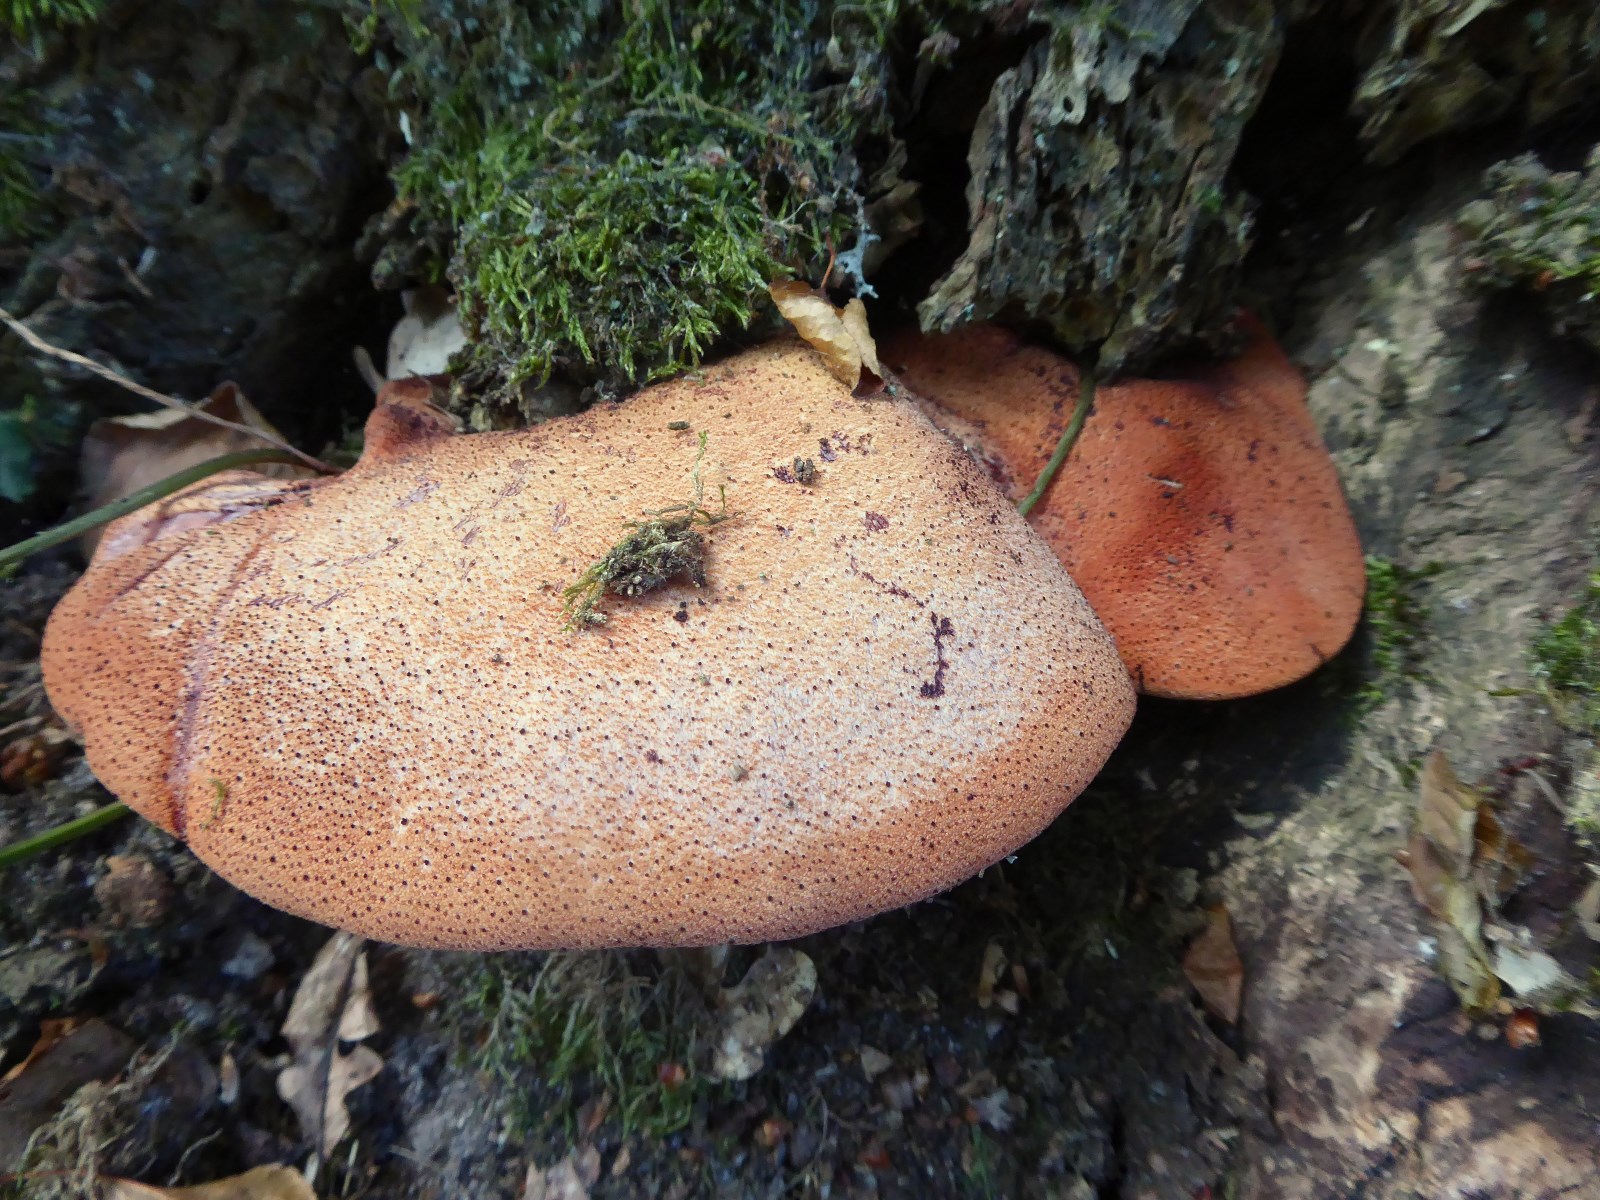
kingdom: Fungi
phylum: Basidiomycota
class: Agaricomycetes
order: Agaricales
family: Fistulinaceae
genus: Fistulina
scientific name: Fistulina hepatica
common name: oksetunge
